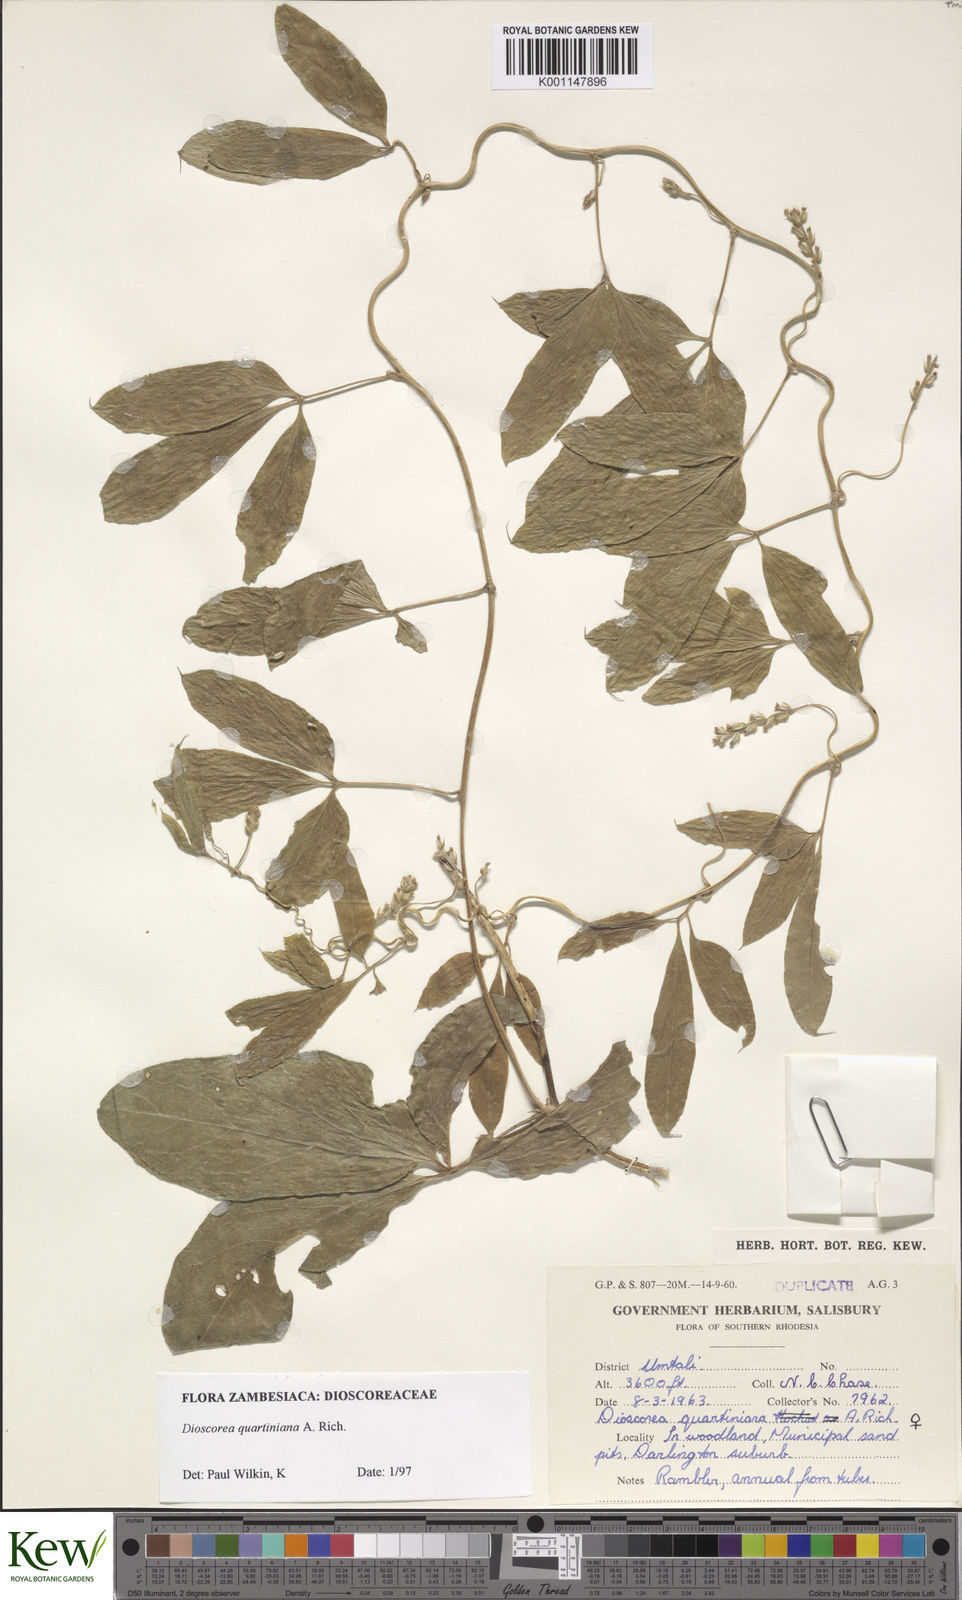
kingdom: Plantae
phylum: Tracheophyta
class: Liliopsida
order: Dioscoreales
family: Dioscoreaceae
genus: Dioscorea
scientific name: Dioscorea quartiniana
